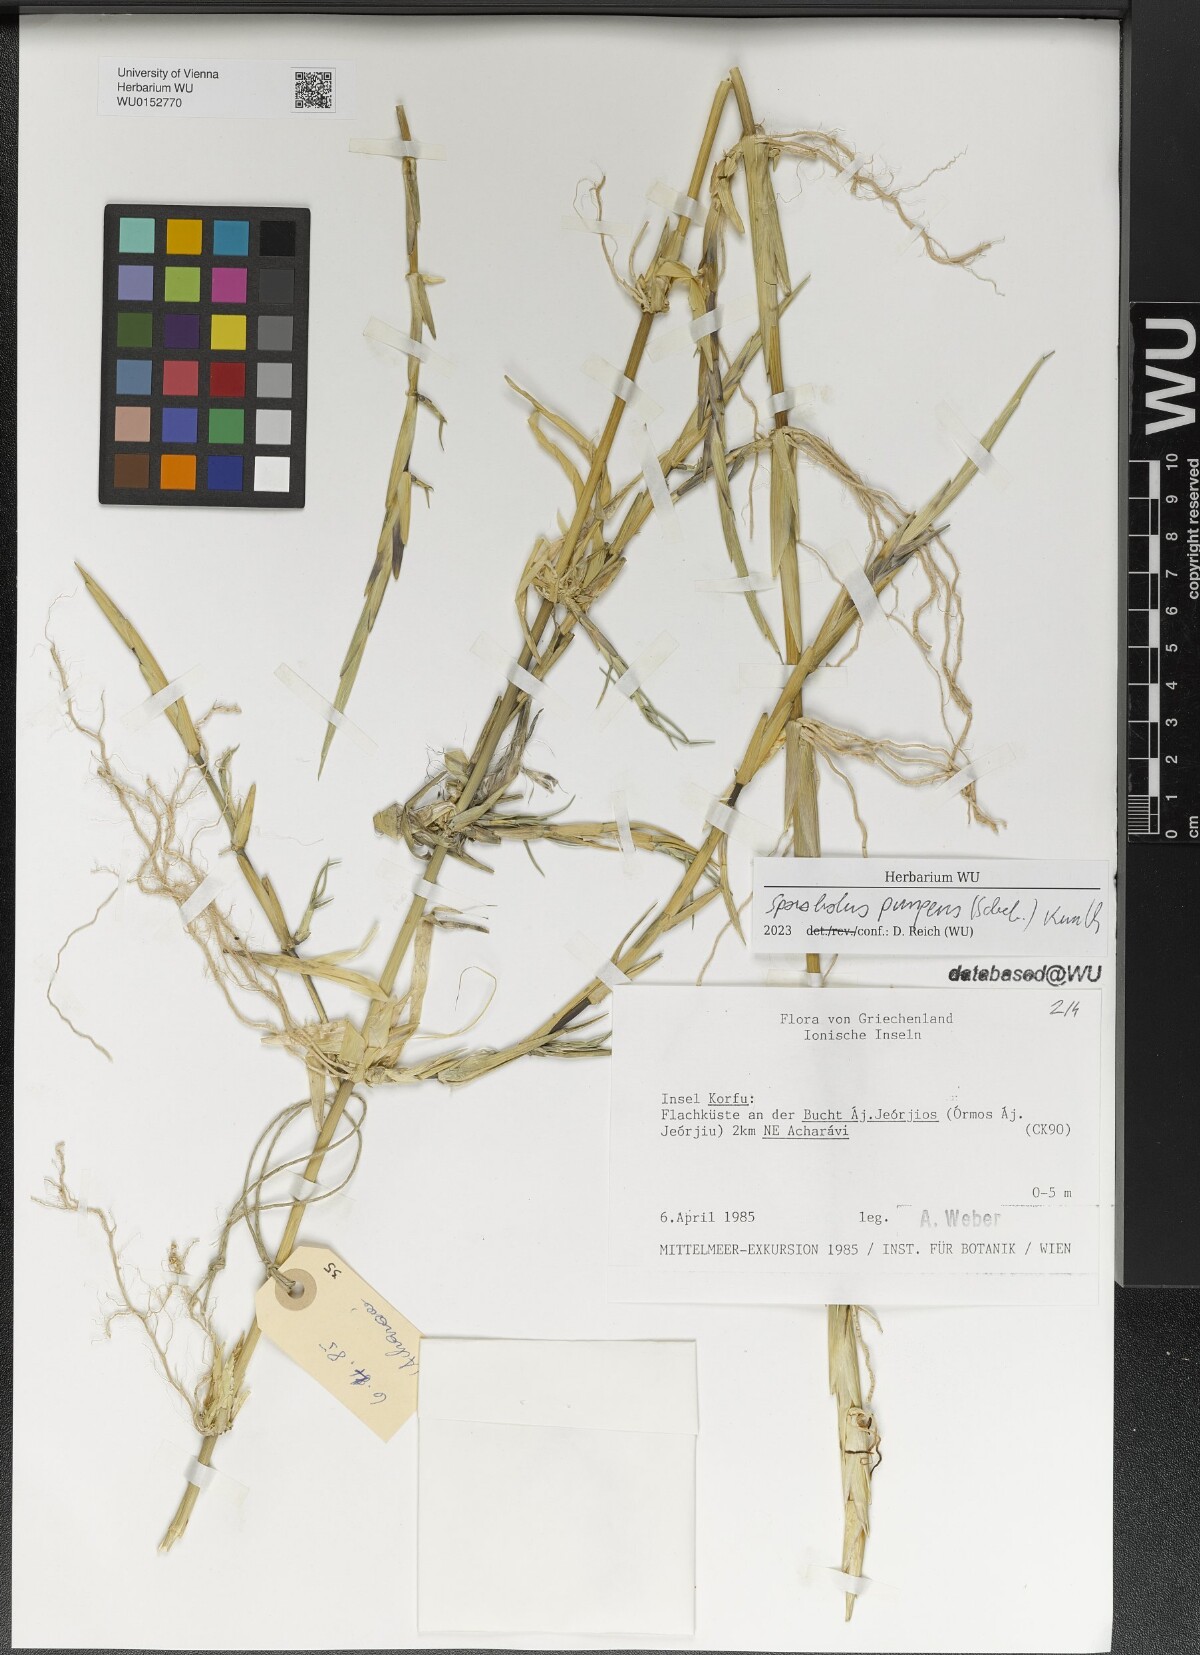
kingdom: Plantae
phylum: Tracheophyta
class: Liliopsida
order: Poales
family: Poaceae
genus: Sporobolus
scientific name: Sporobolus pungens
